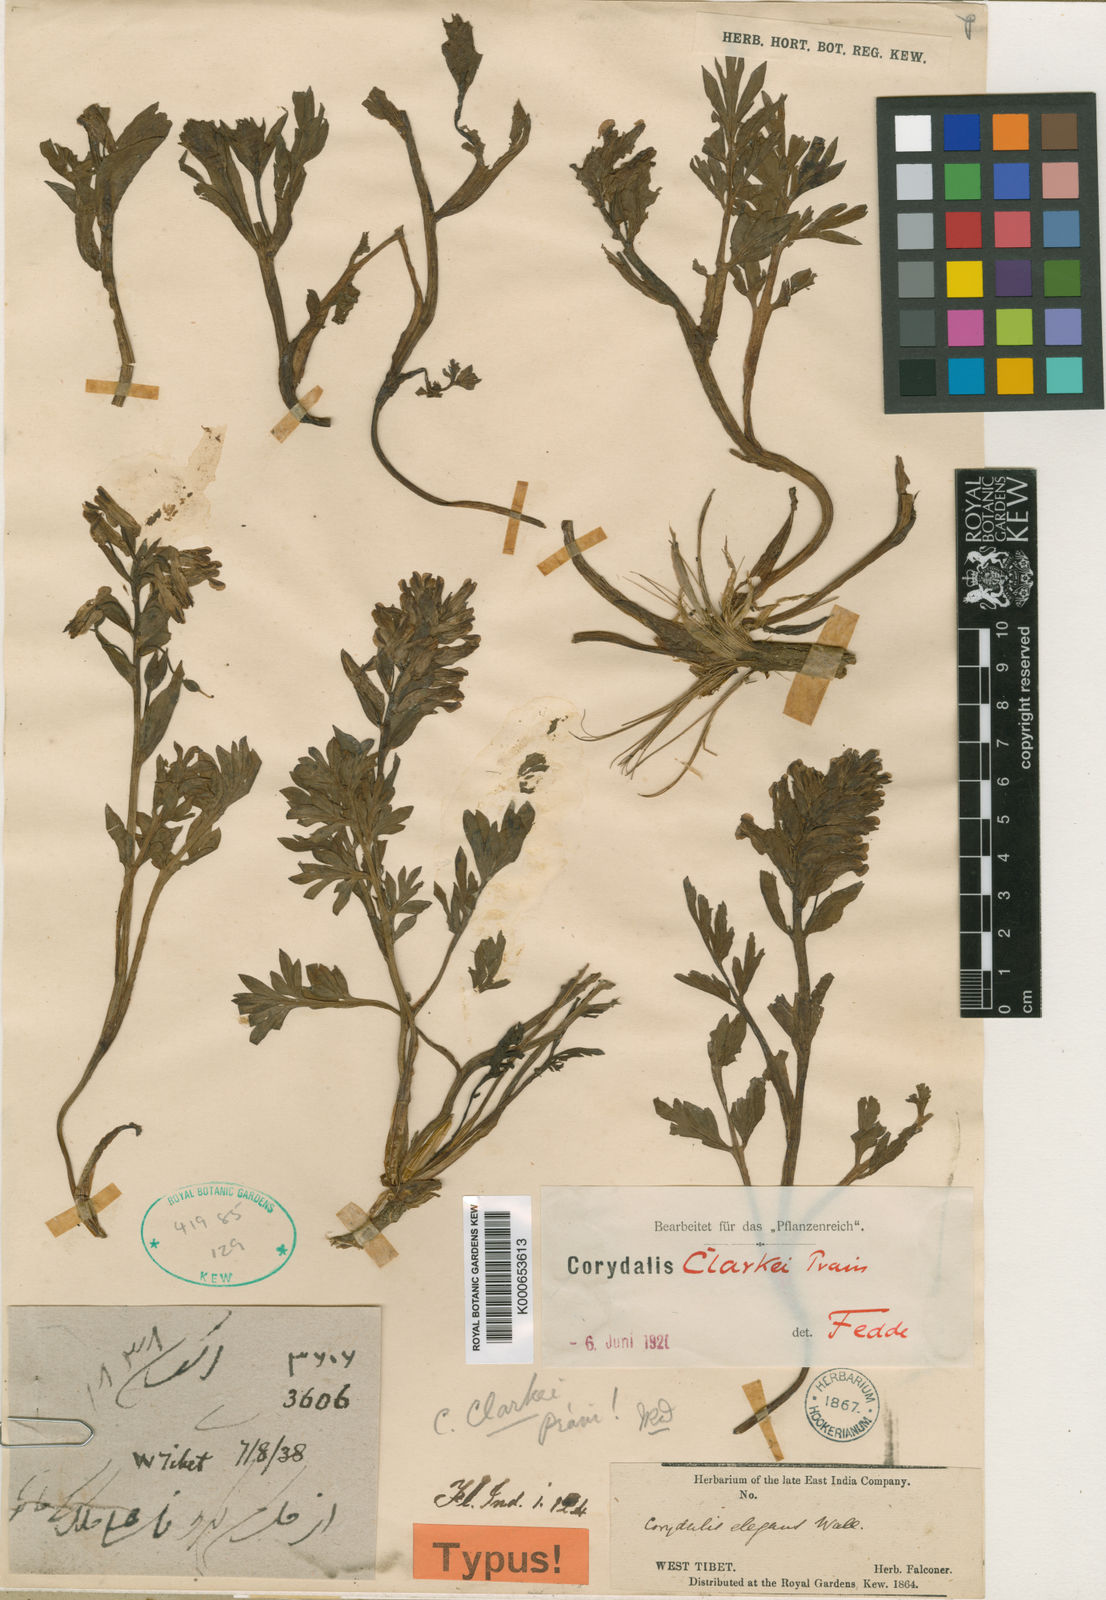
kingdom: Plantae
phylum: Tracheophyta
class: Magnoliopsida
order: Ranunculales
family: Papaveraceae
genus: Corydalis
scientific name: Corydalis clarkei
